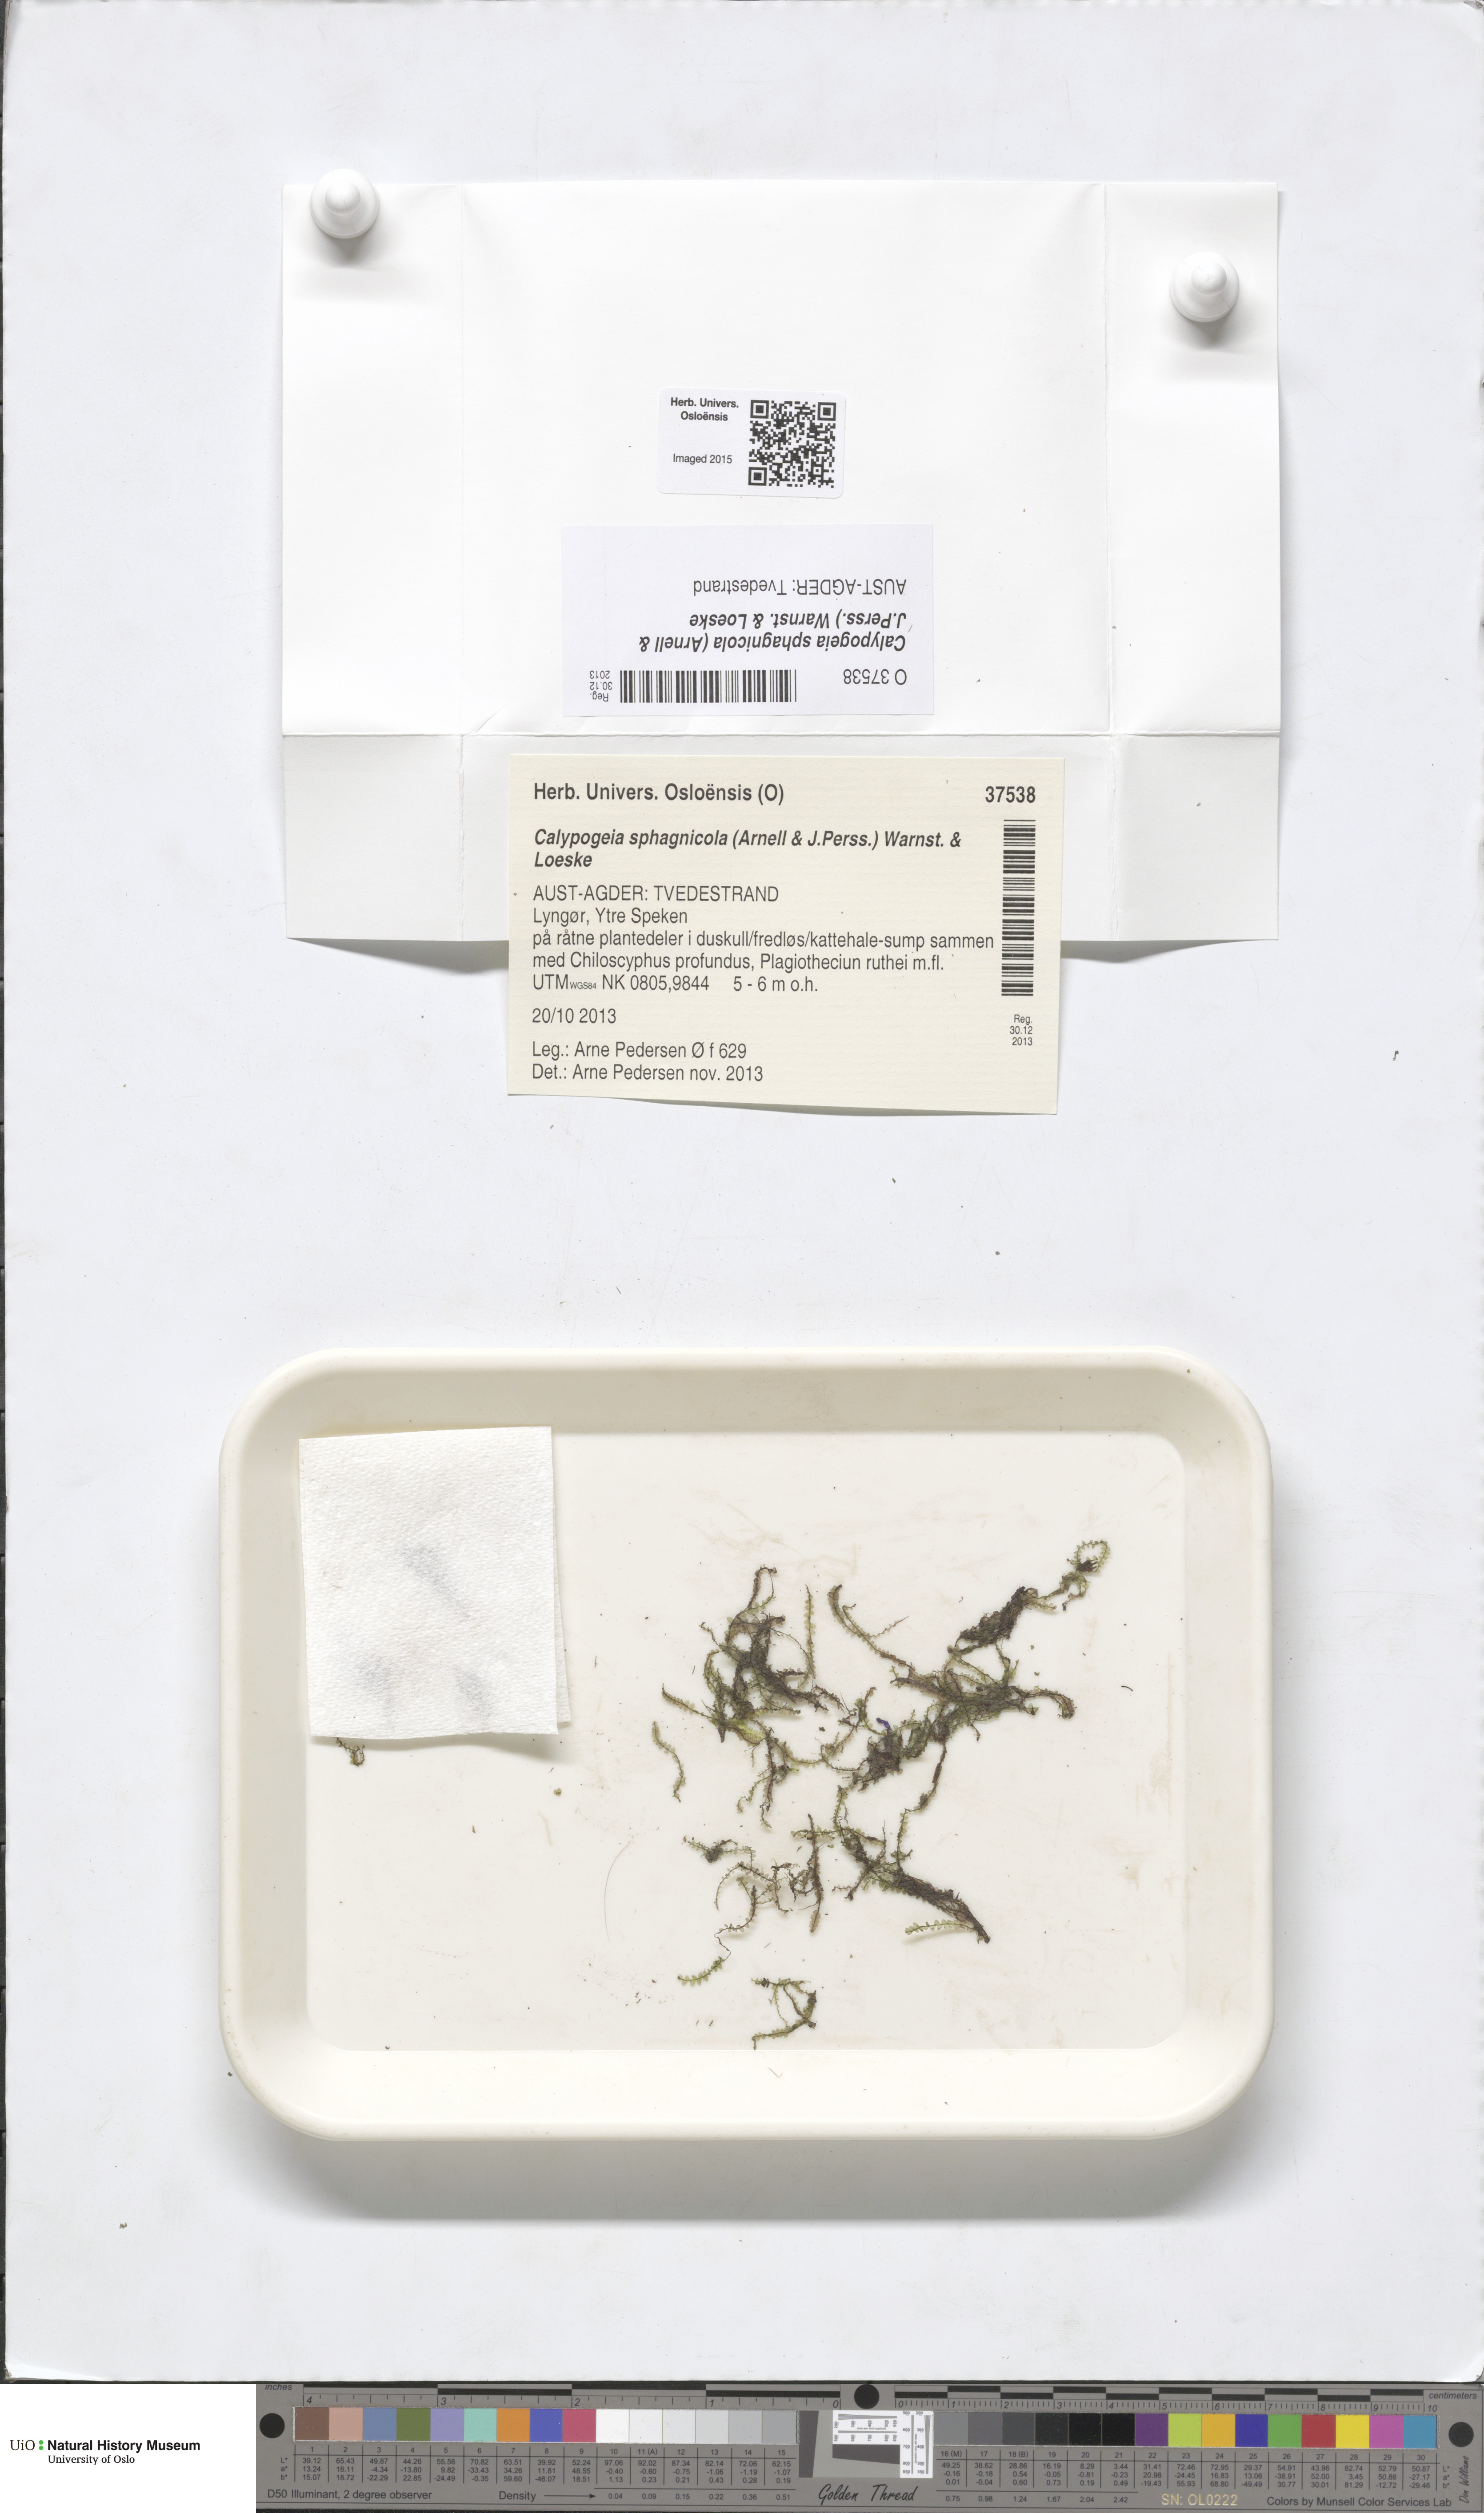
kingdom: Plantae
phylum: Marchantiophyta
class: Jungermanniopsida
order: Jungermanniales
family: Calypogeiaceae
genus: Calypogeia
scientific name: Calypogeia sphagnicola
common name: Bog pouchwort
